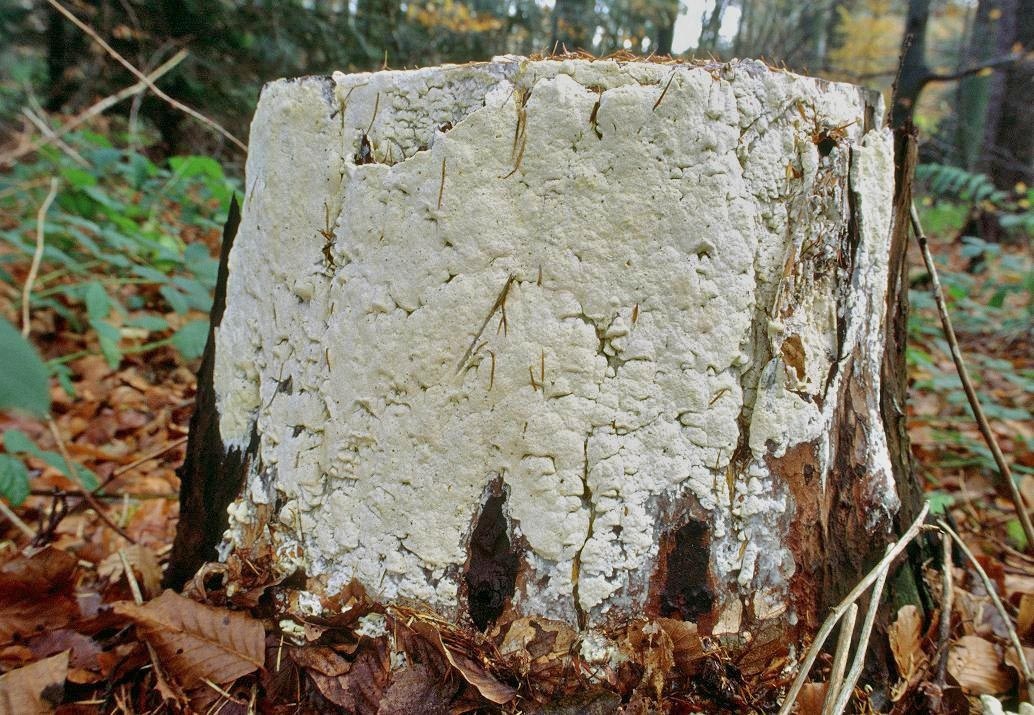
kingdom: Fungi
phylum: Basidiomycota
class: Agaricomycetes
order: Polyporales
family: Fomitopsidaceae
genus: Daedalea
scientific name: Daedalea xantha
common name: gul sejporesvamp
